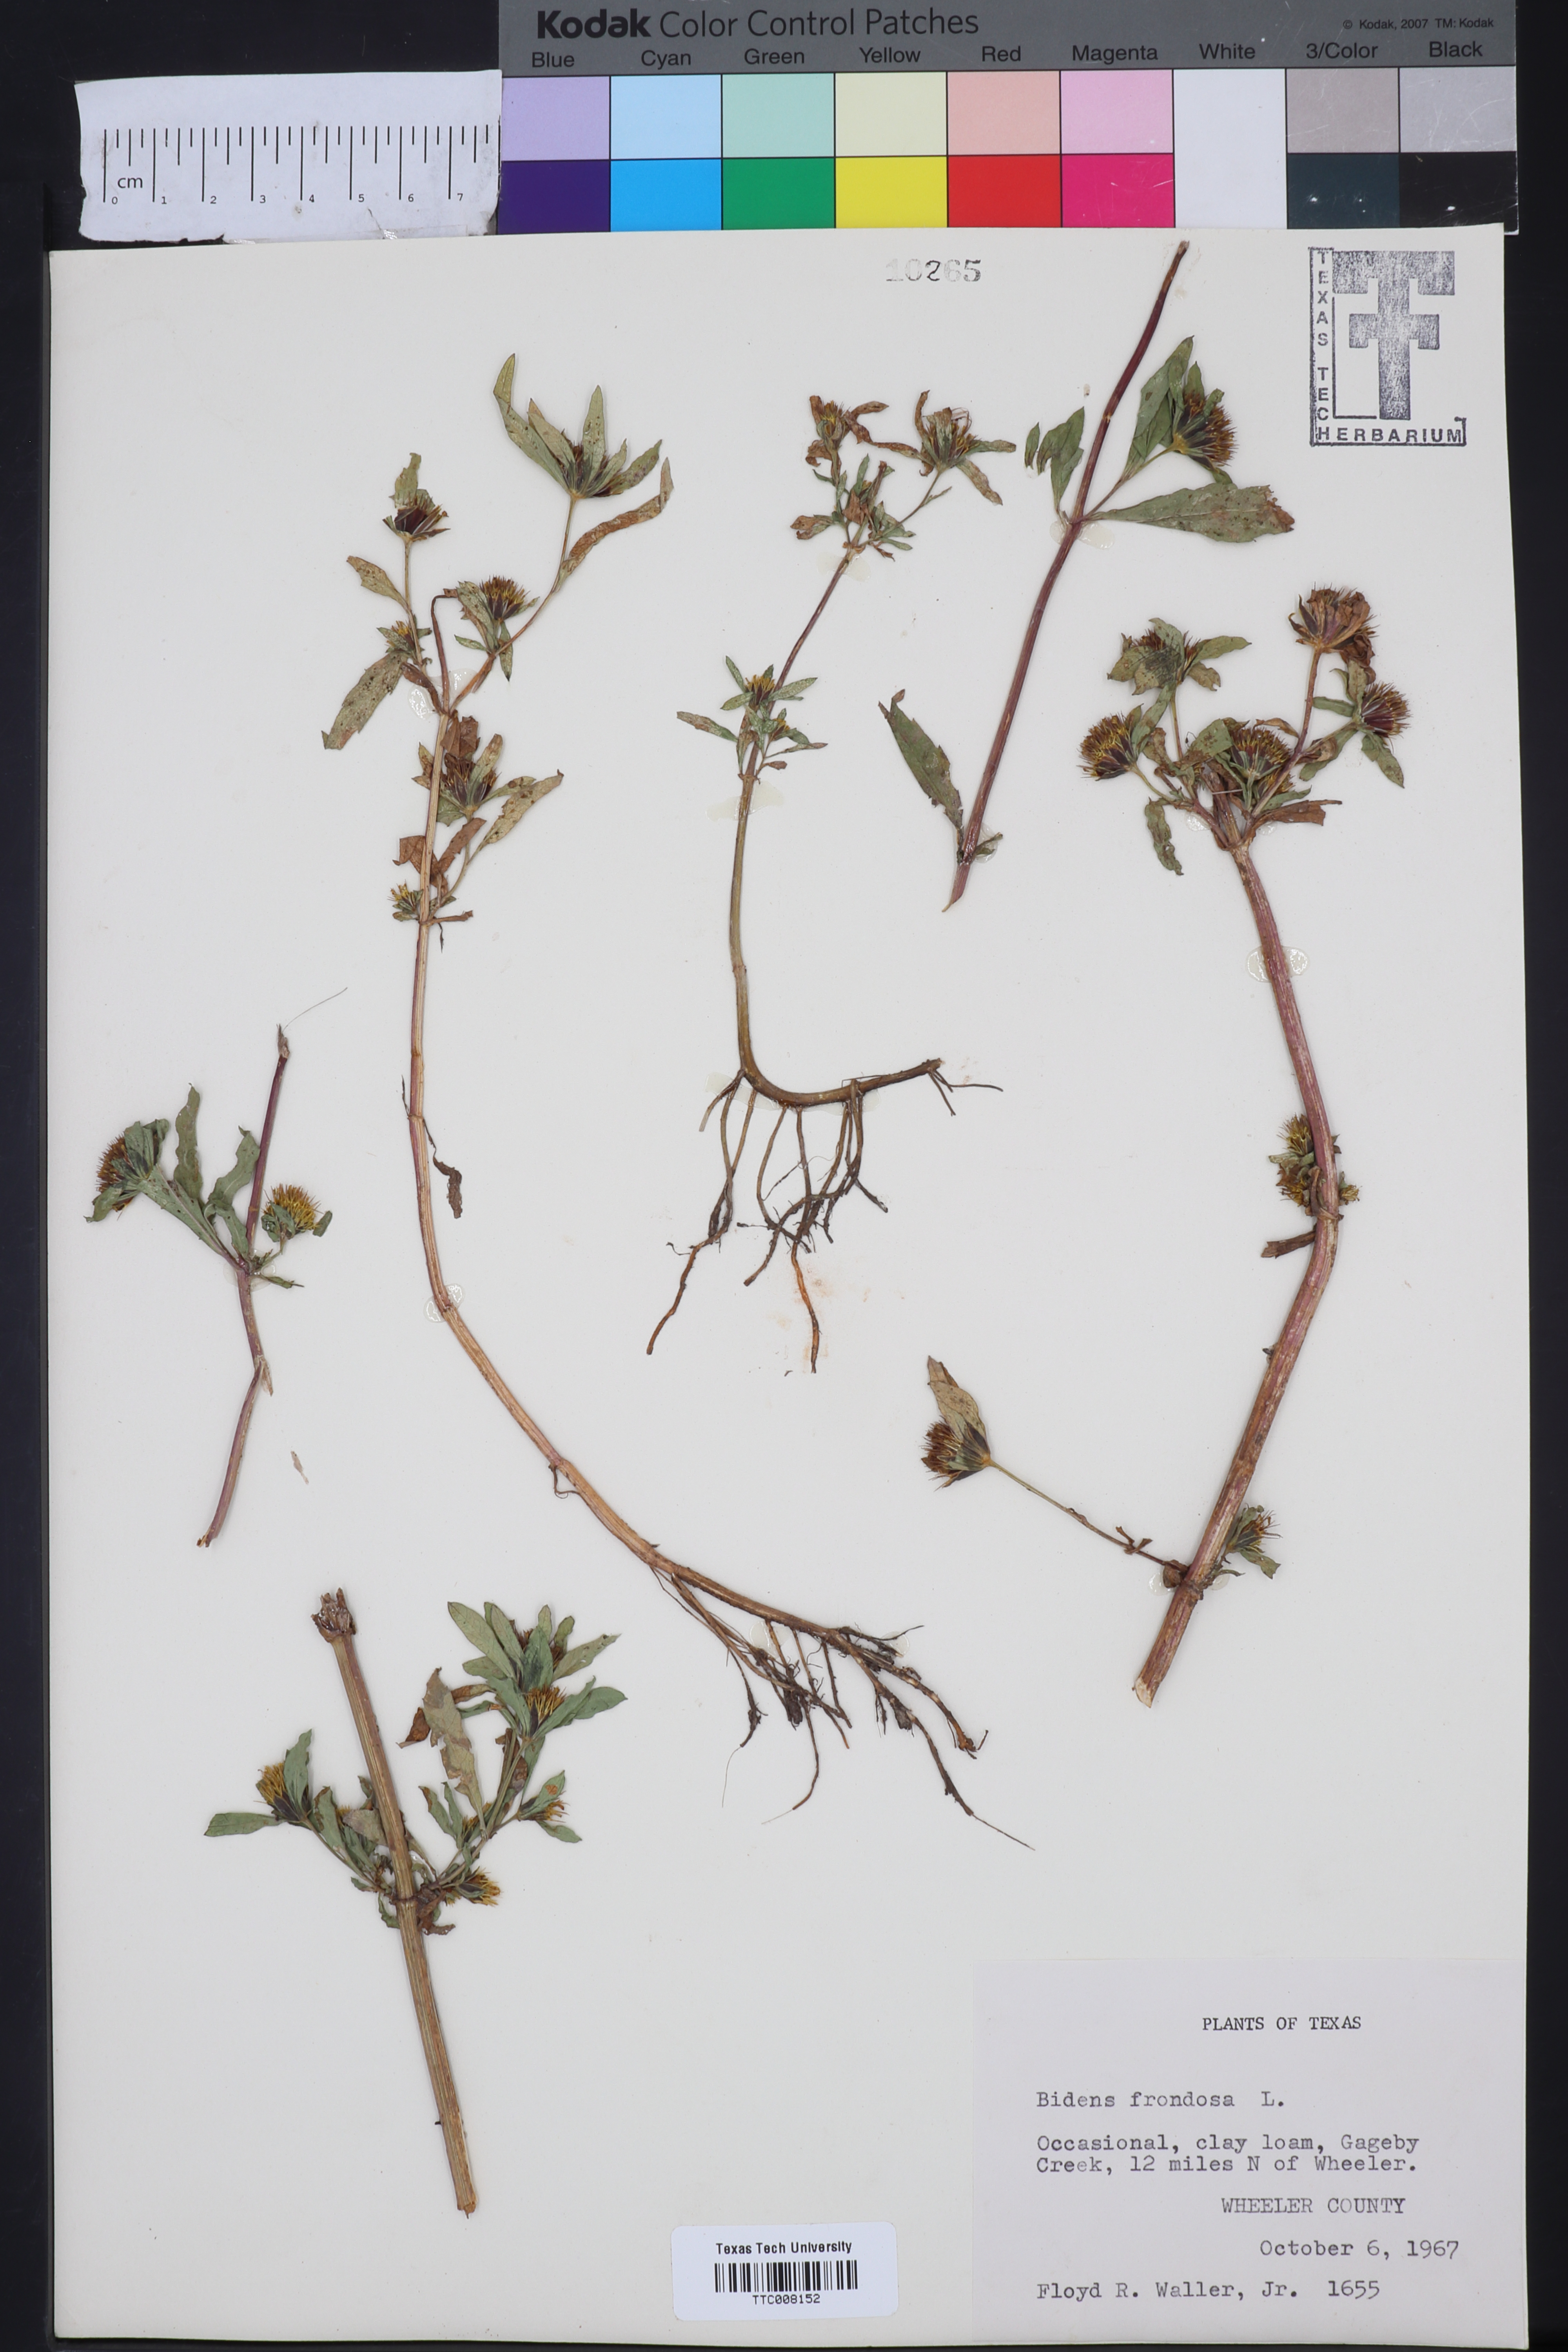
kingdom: Plantae
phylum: Tracheophyta
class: Magnoliopsida
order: Asterales
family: Asteraceae
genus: Bidens
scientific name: Bidens frondosa
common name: Beggarticks
